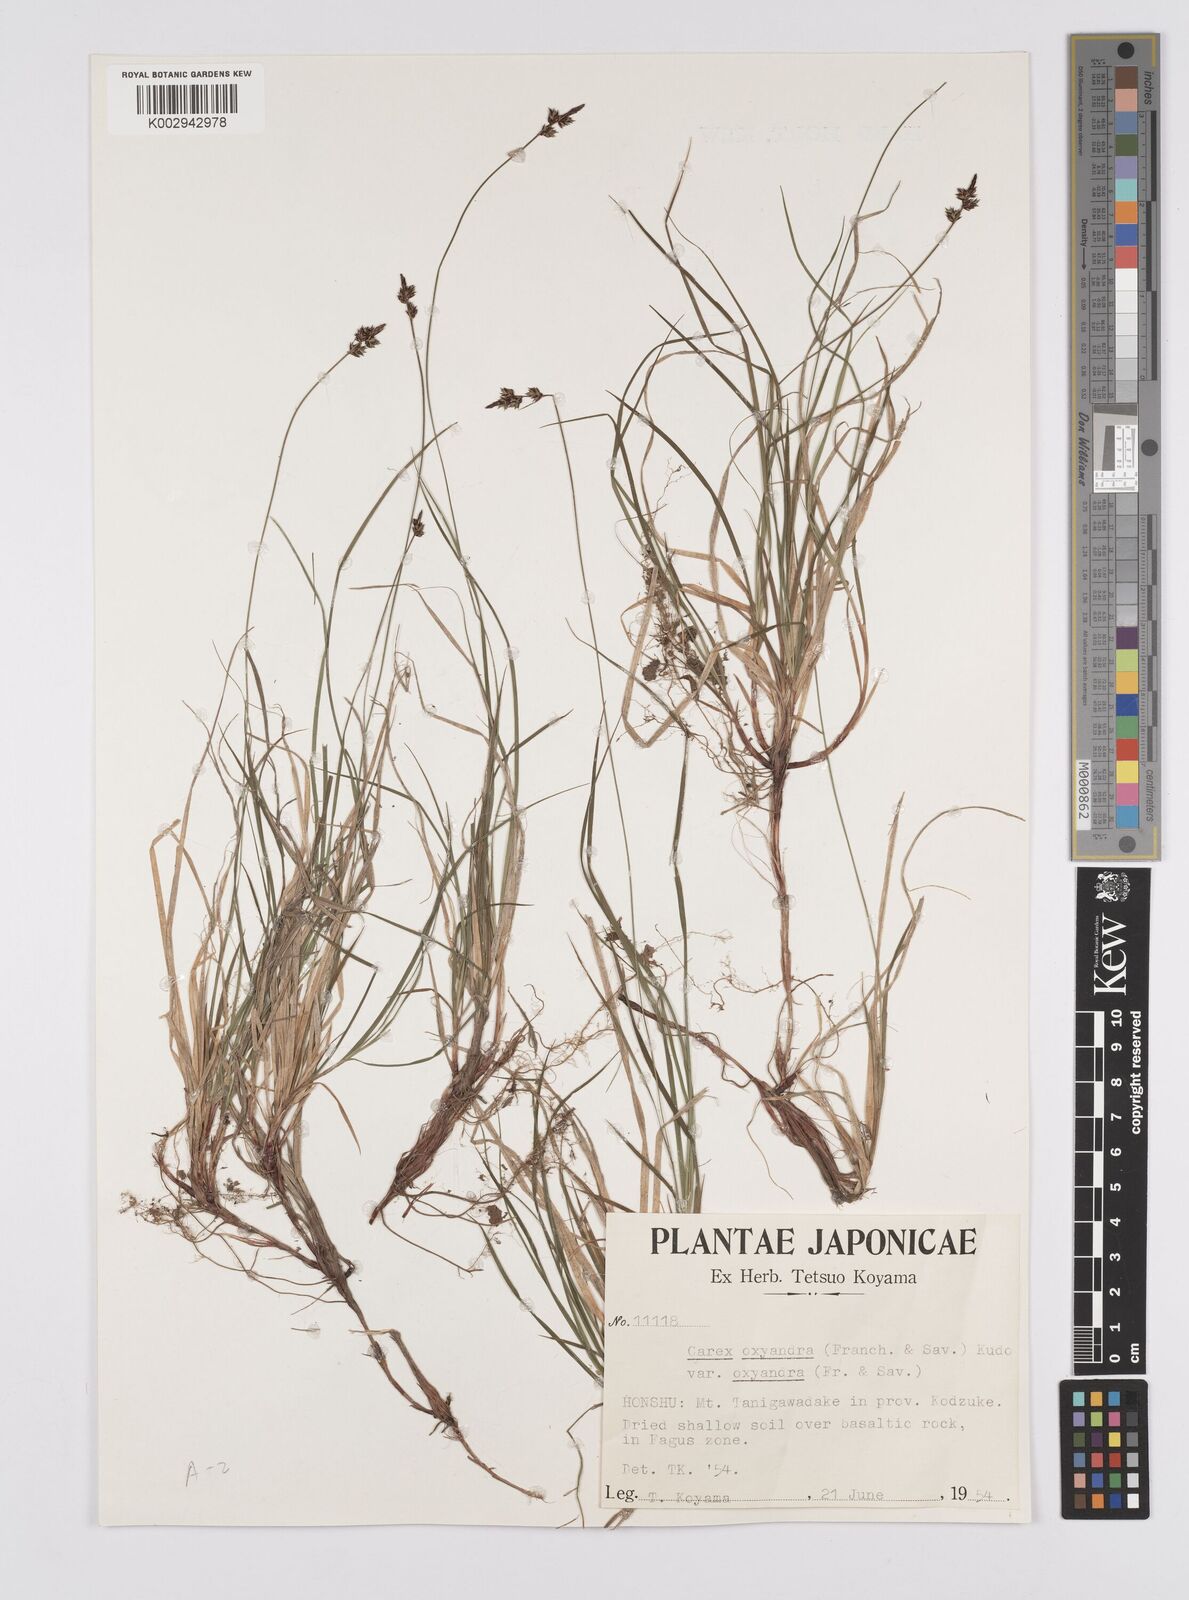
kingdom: Plantae
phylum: Tracheophyta
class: Liliopsida
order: Poales
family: Cyperaceae
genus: Carex
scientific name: Carex oxyandra
